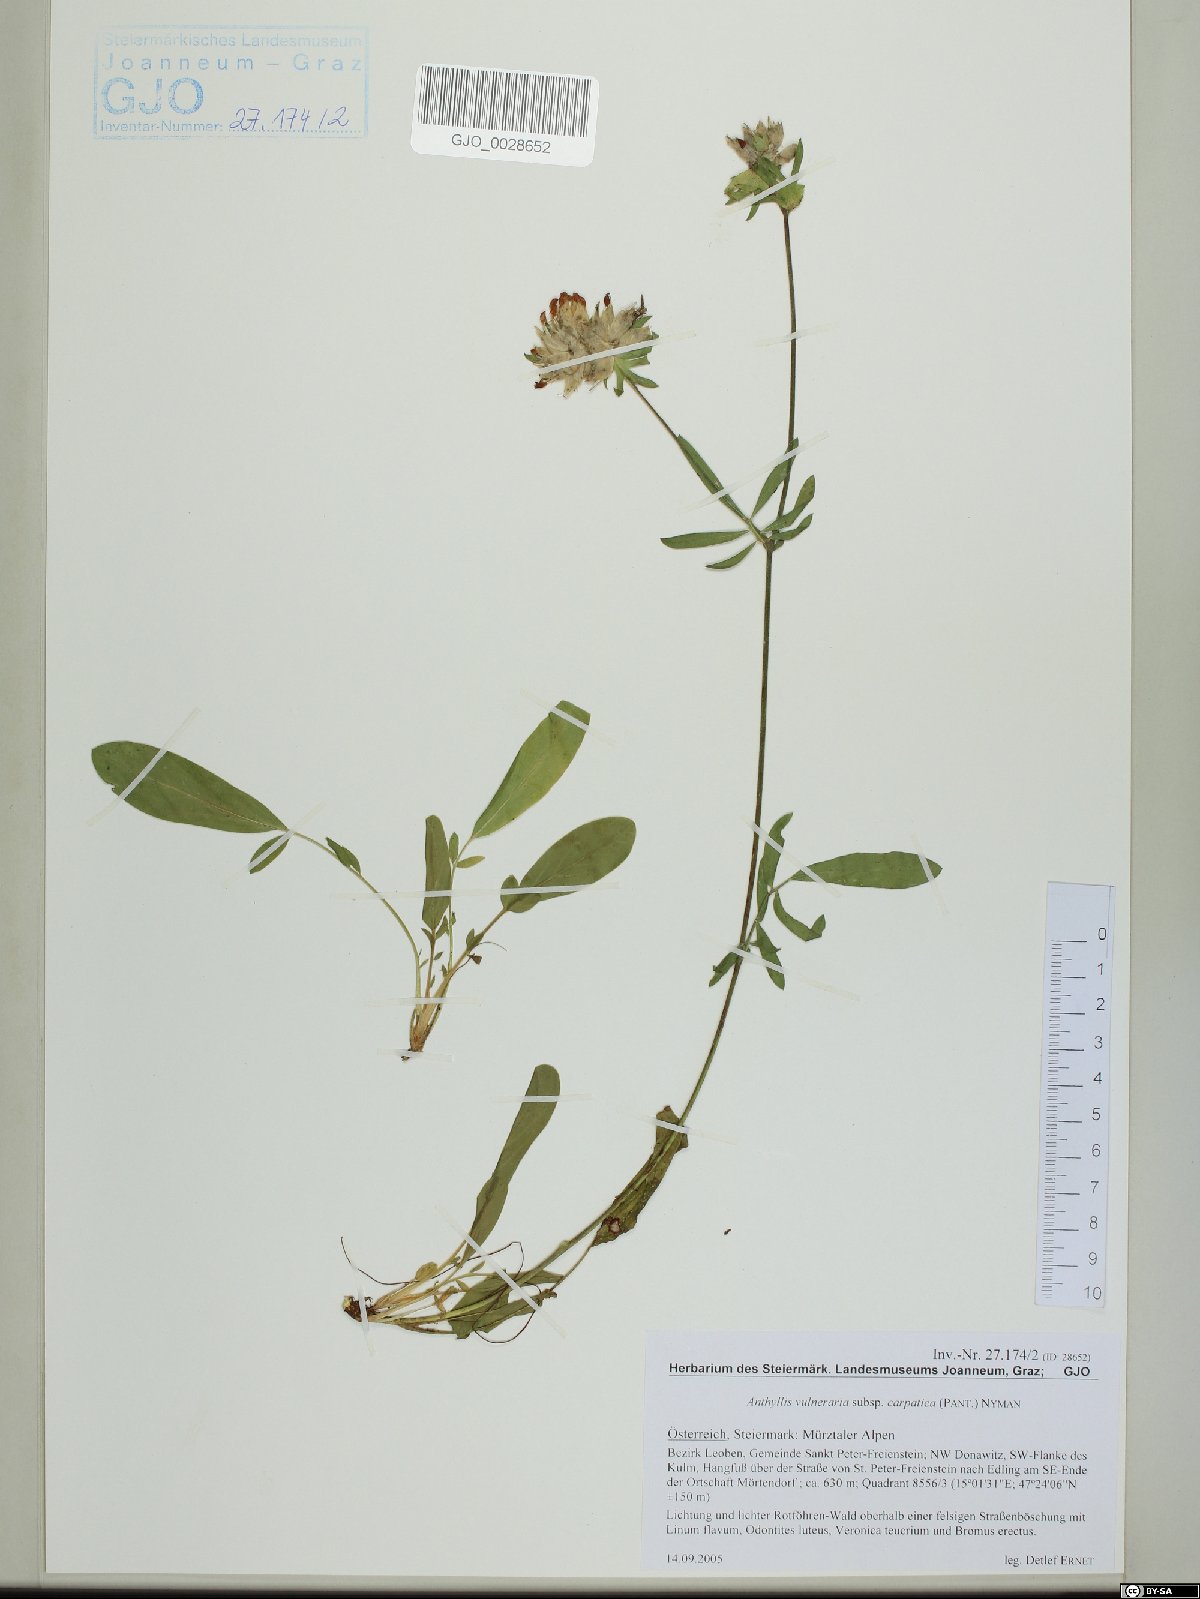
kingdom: Plantae
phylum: Tracheophyta
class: Magnoliopsida
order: Fabales
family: Fabaceae
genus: Anthyllis
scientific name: Anthyllis vulneraria
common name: Kidney vetch
